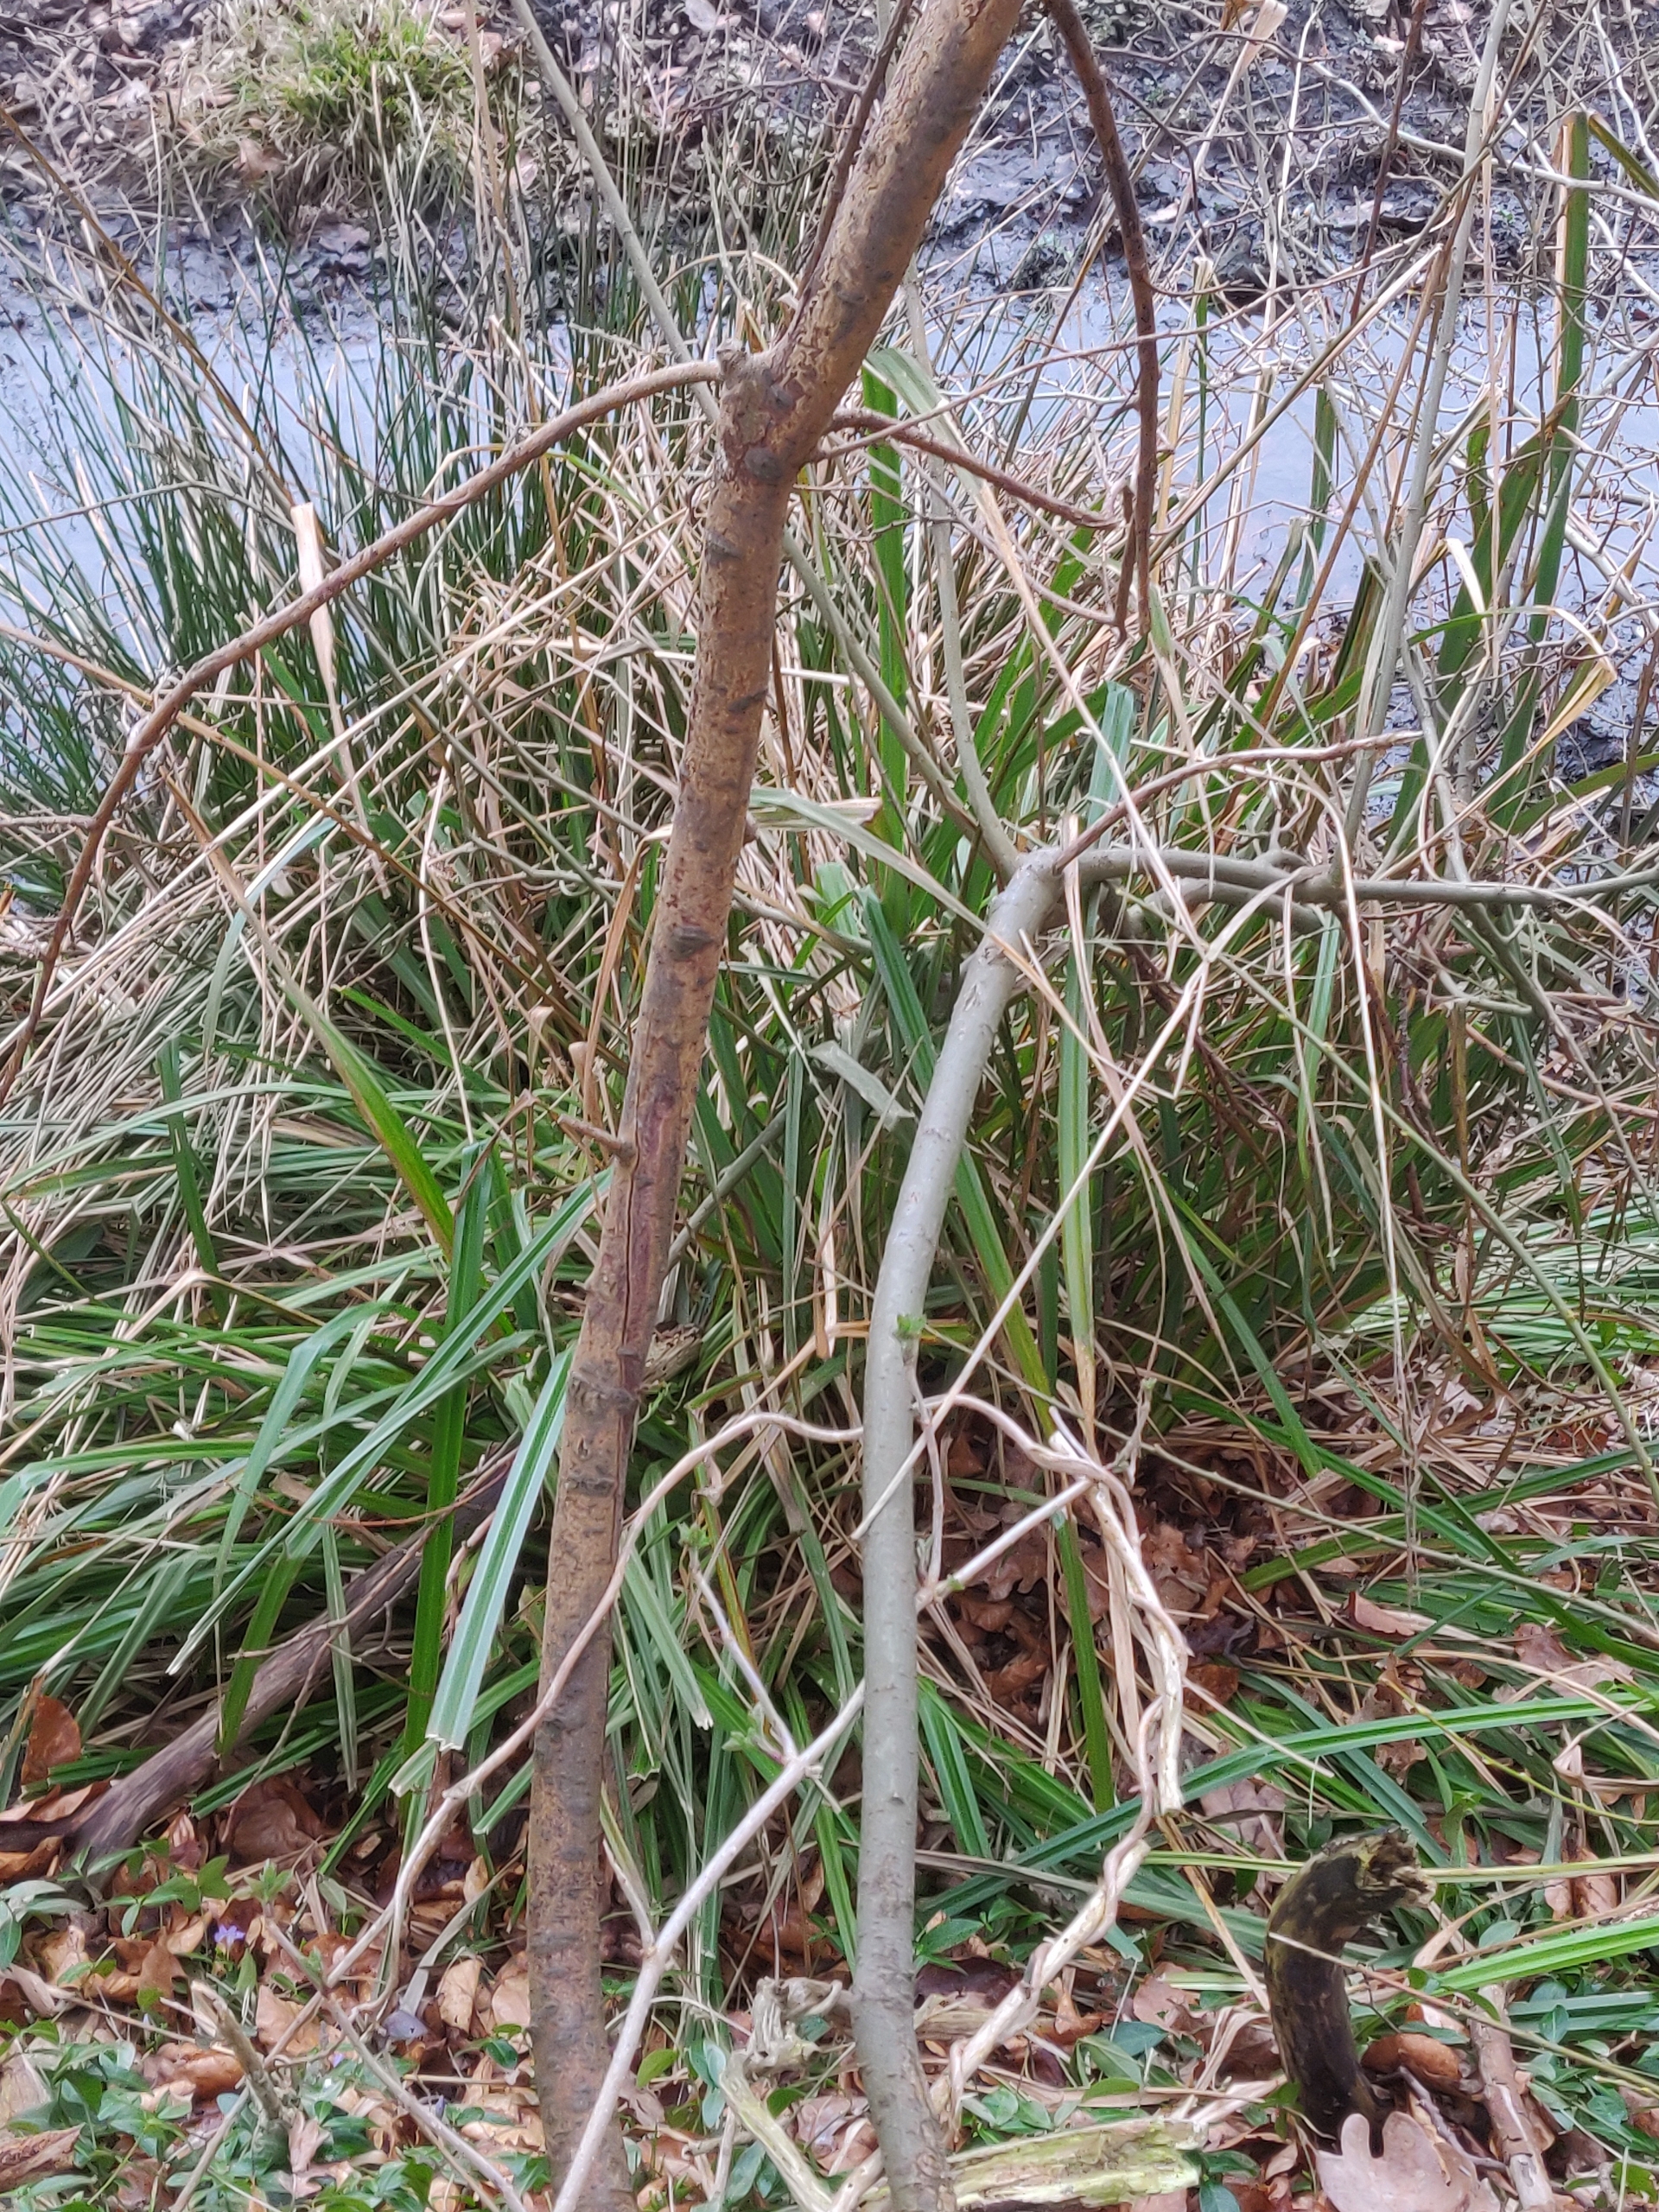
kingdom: Plantae
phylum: Tracheophyta
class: Liliopsida
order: Poales
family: Cyperaceae
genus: Carex
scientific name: Carex pendula
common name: Kæmpe-star
